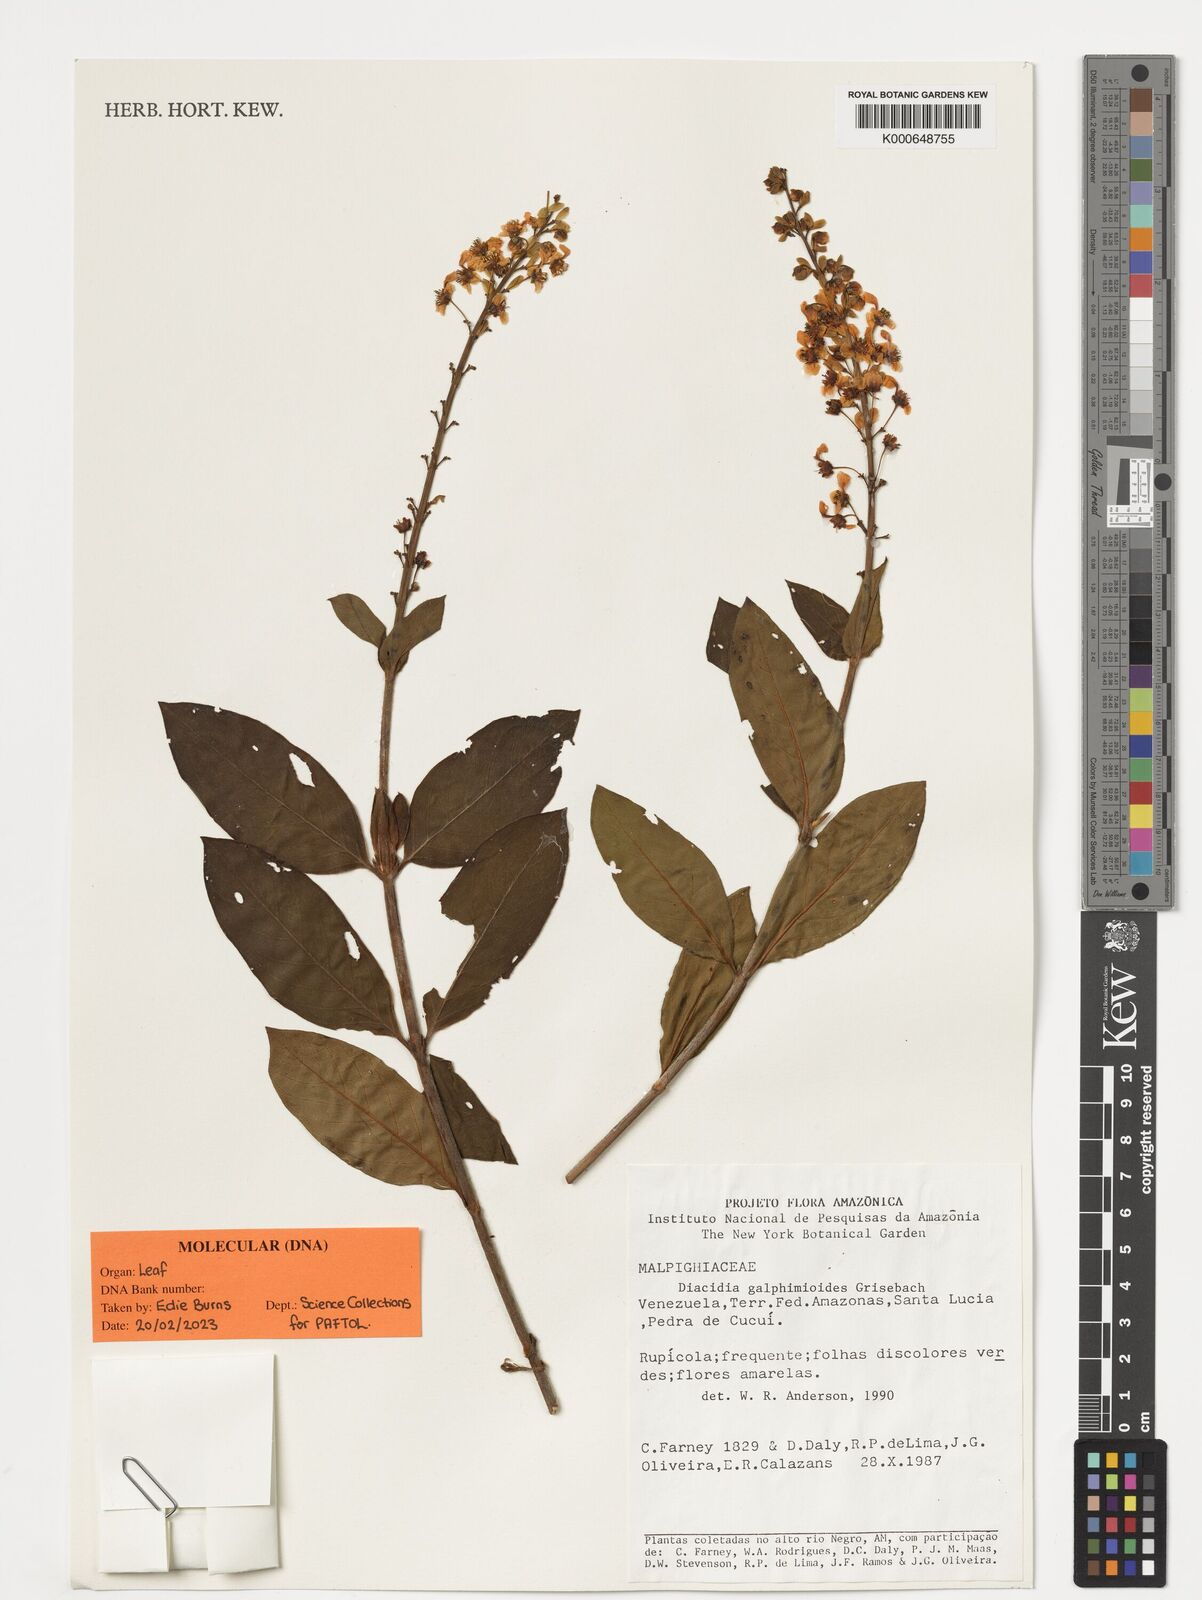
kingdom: Plantae
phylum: Tracheophyta
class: Magnoliopsida
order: Malpighiales
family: Malpighiaceae
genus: Diacidia
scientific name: Diacidia galphimioides
